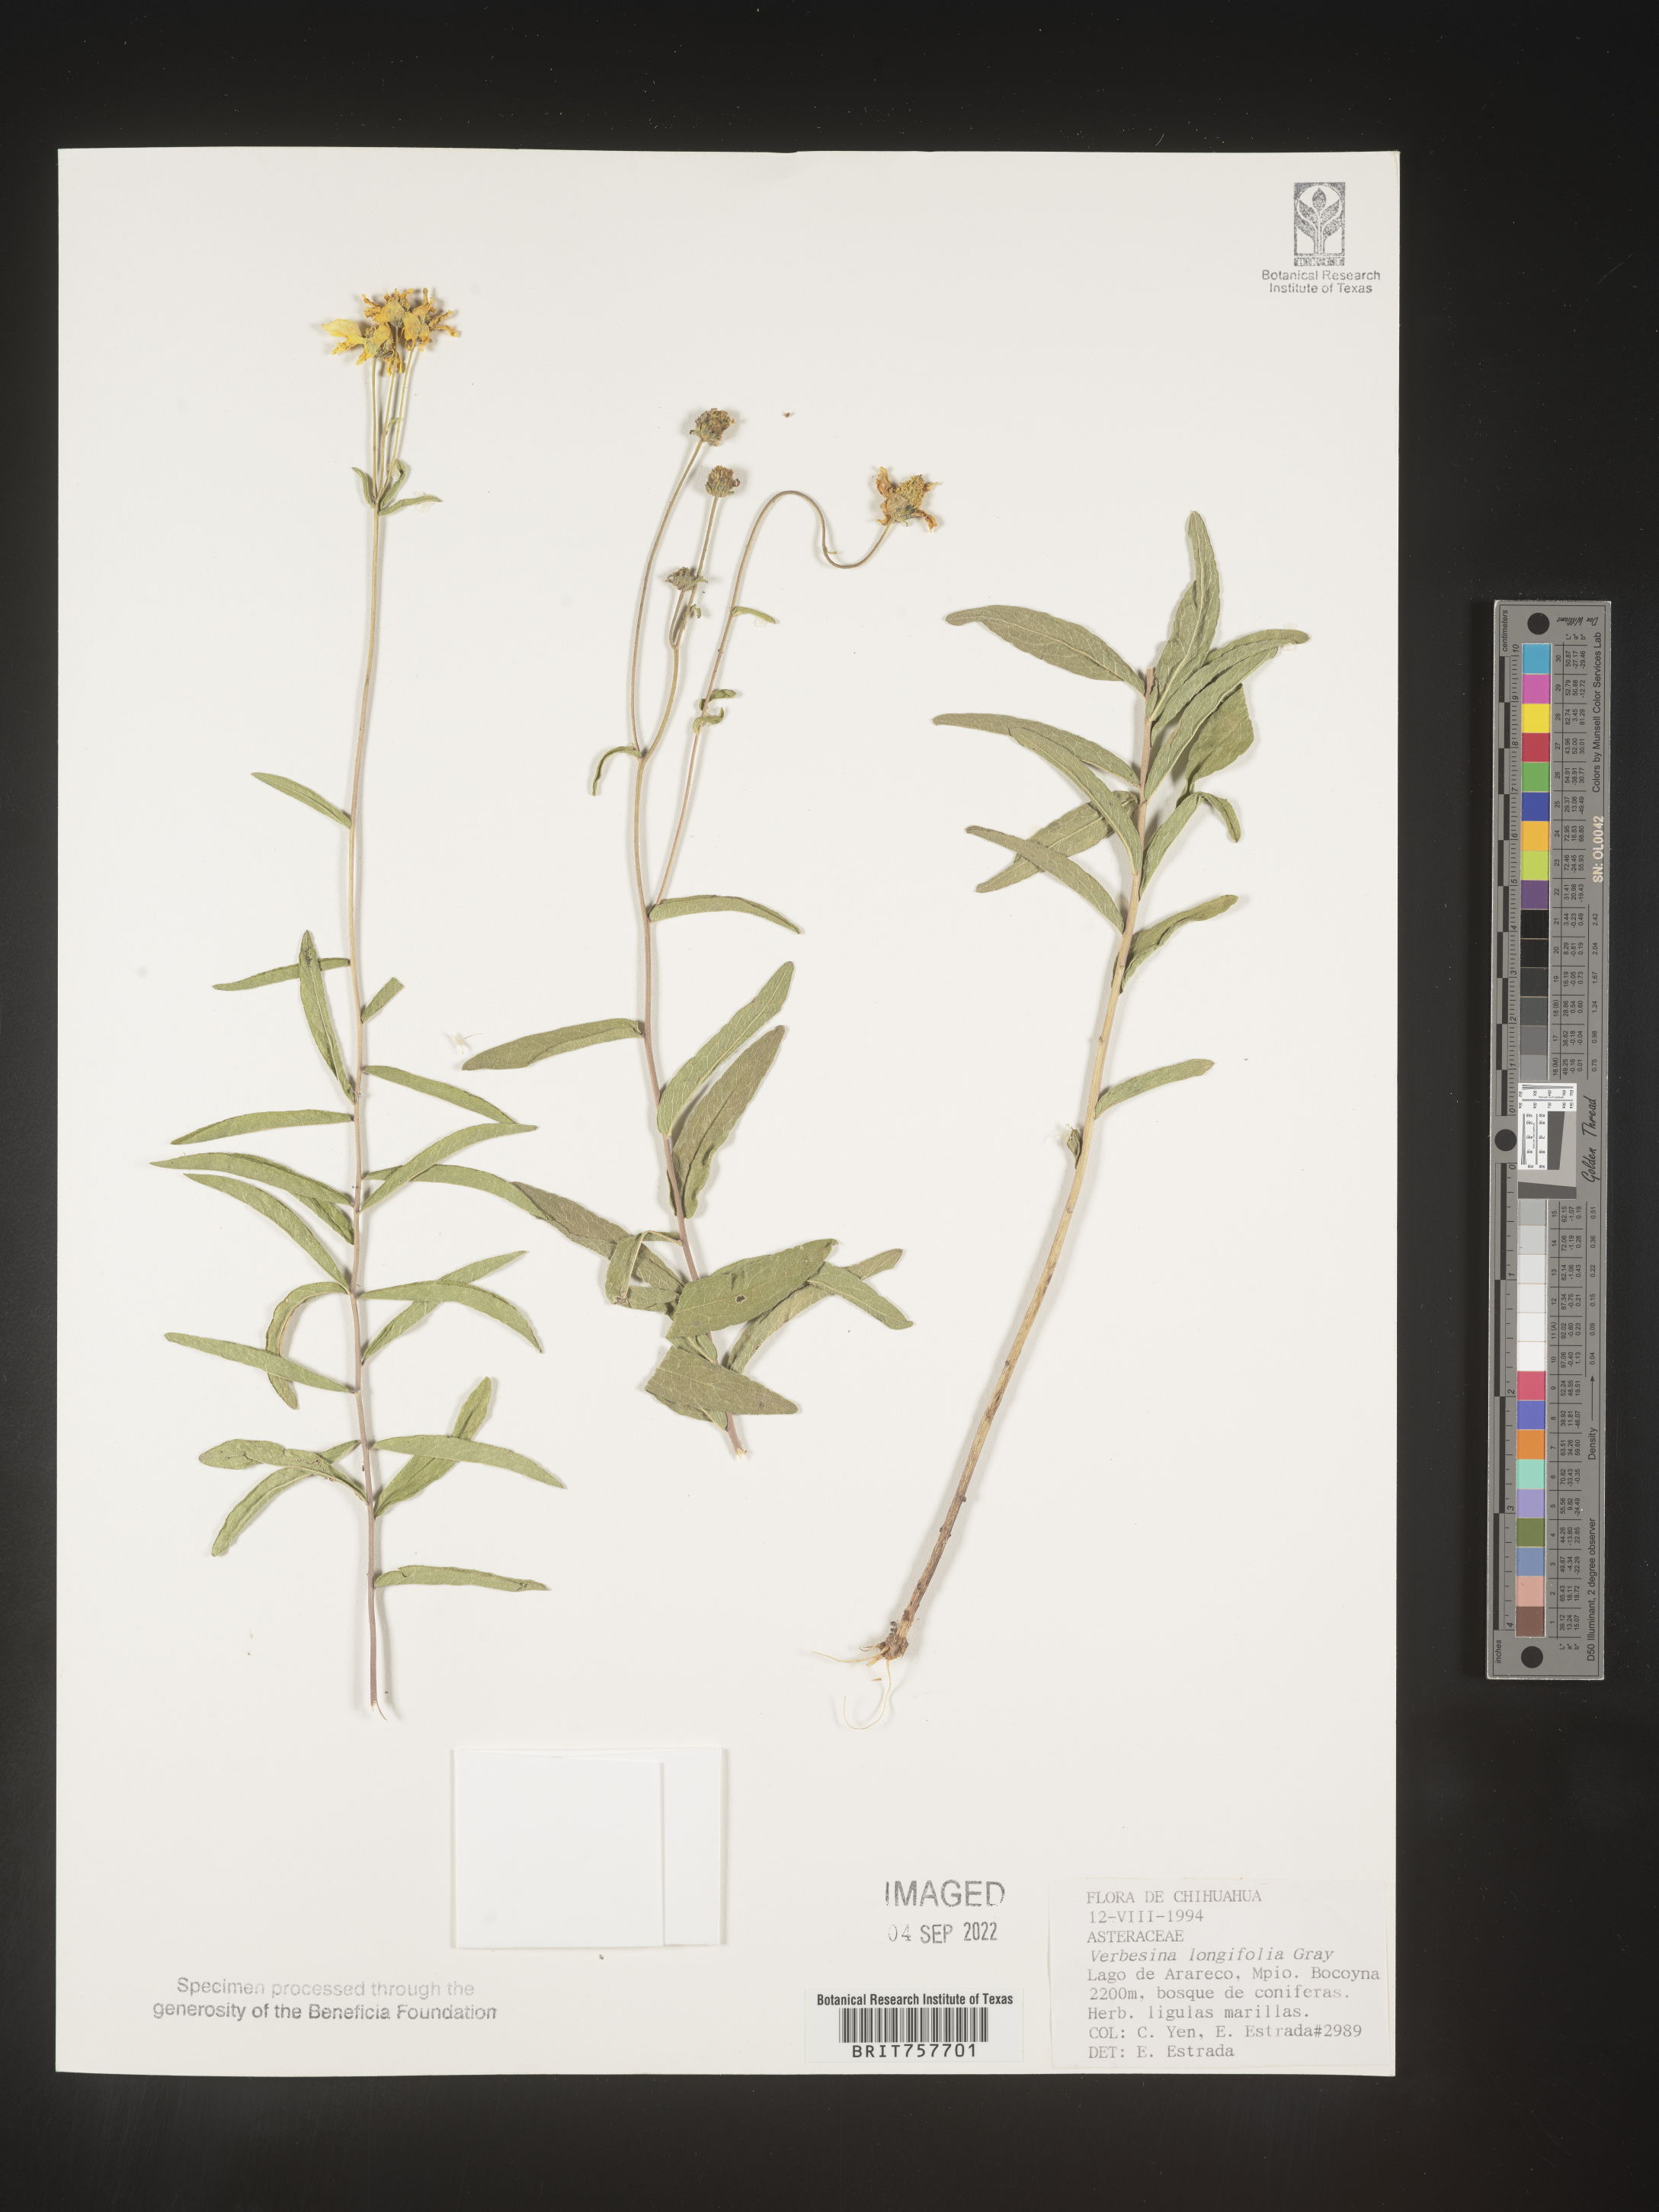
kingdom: Plantae
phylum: Tracheophyta
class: Magnoliopsida
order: Asterales
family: Asteraceae
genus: Verbesina
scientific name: Verbesina
